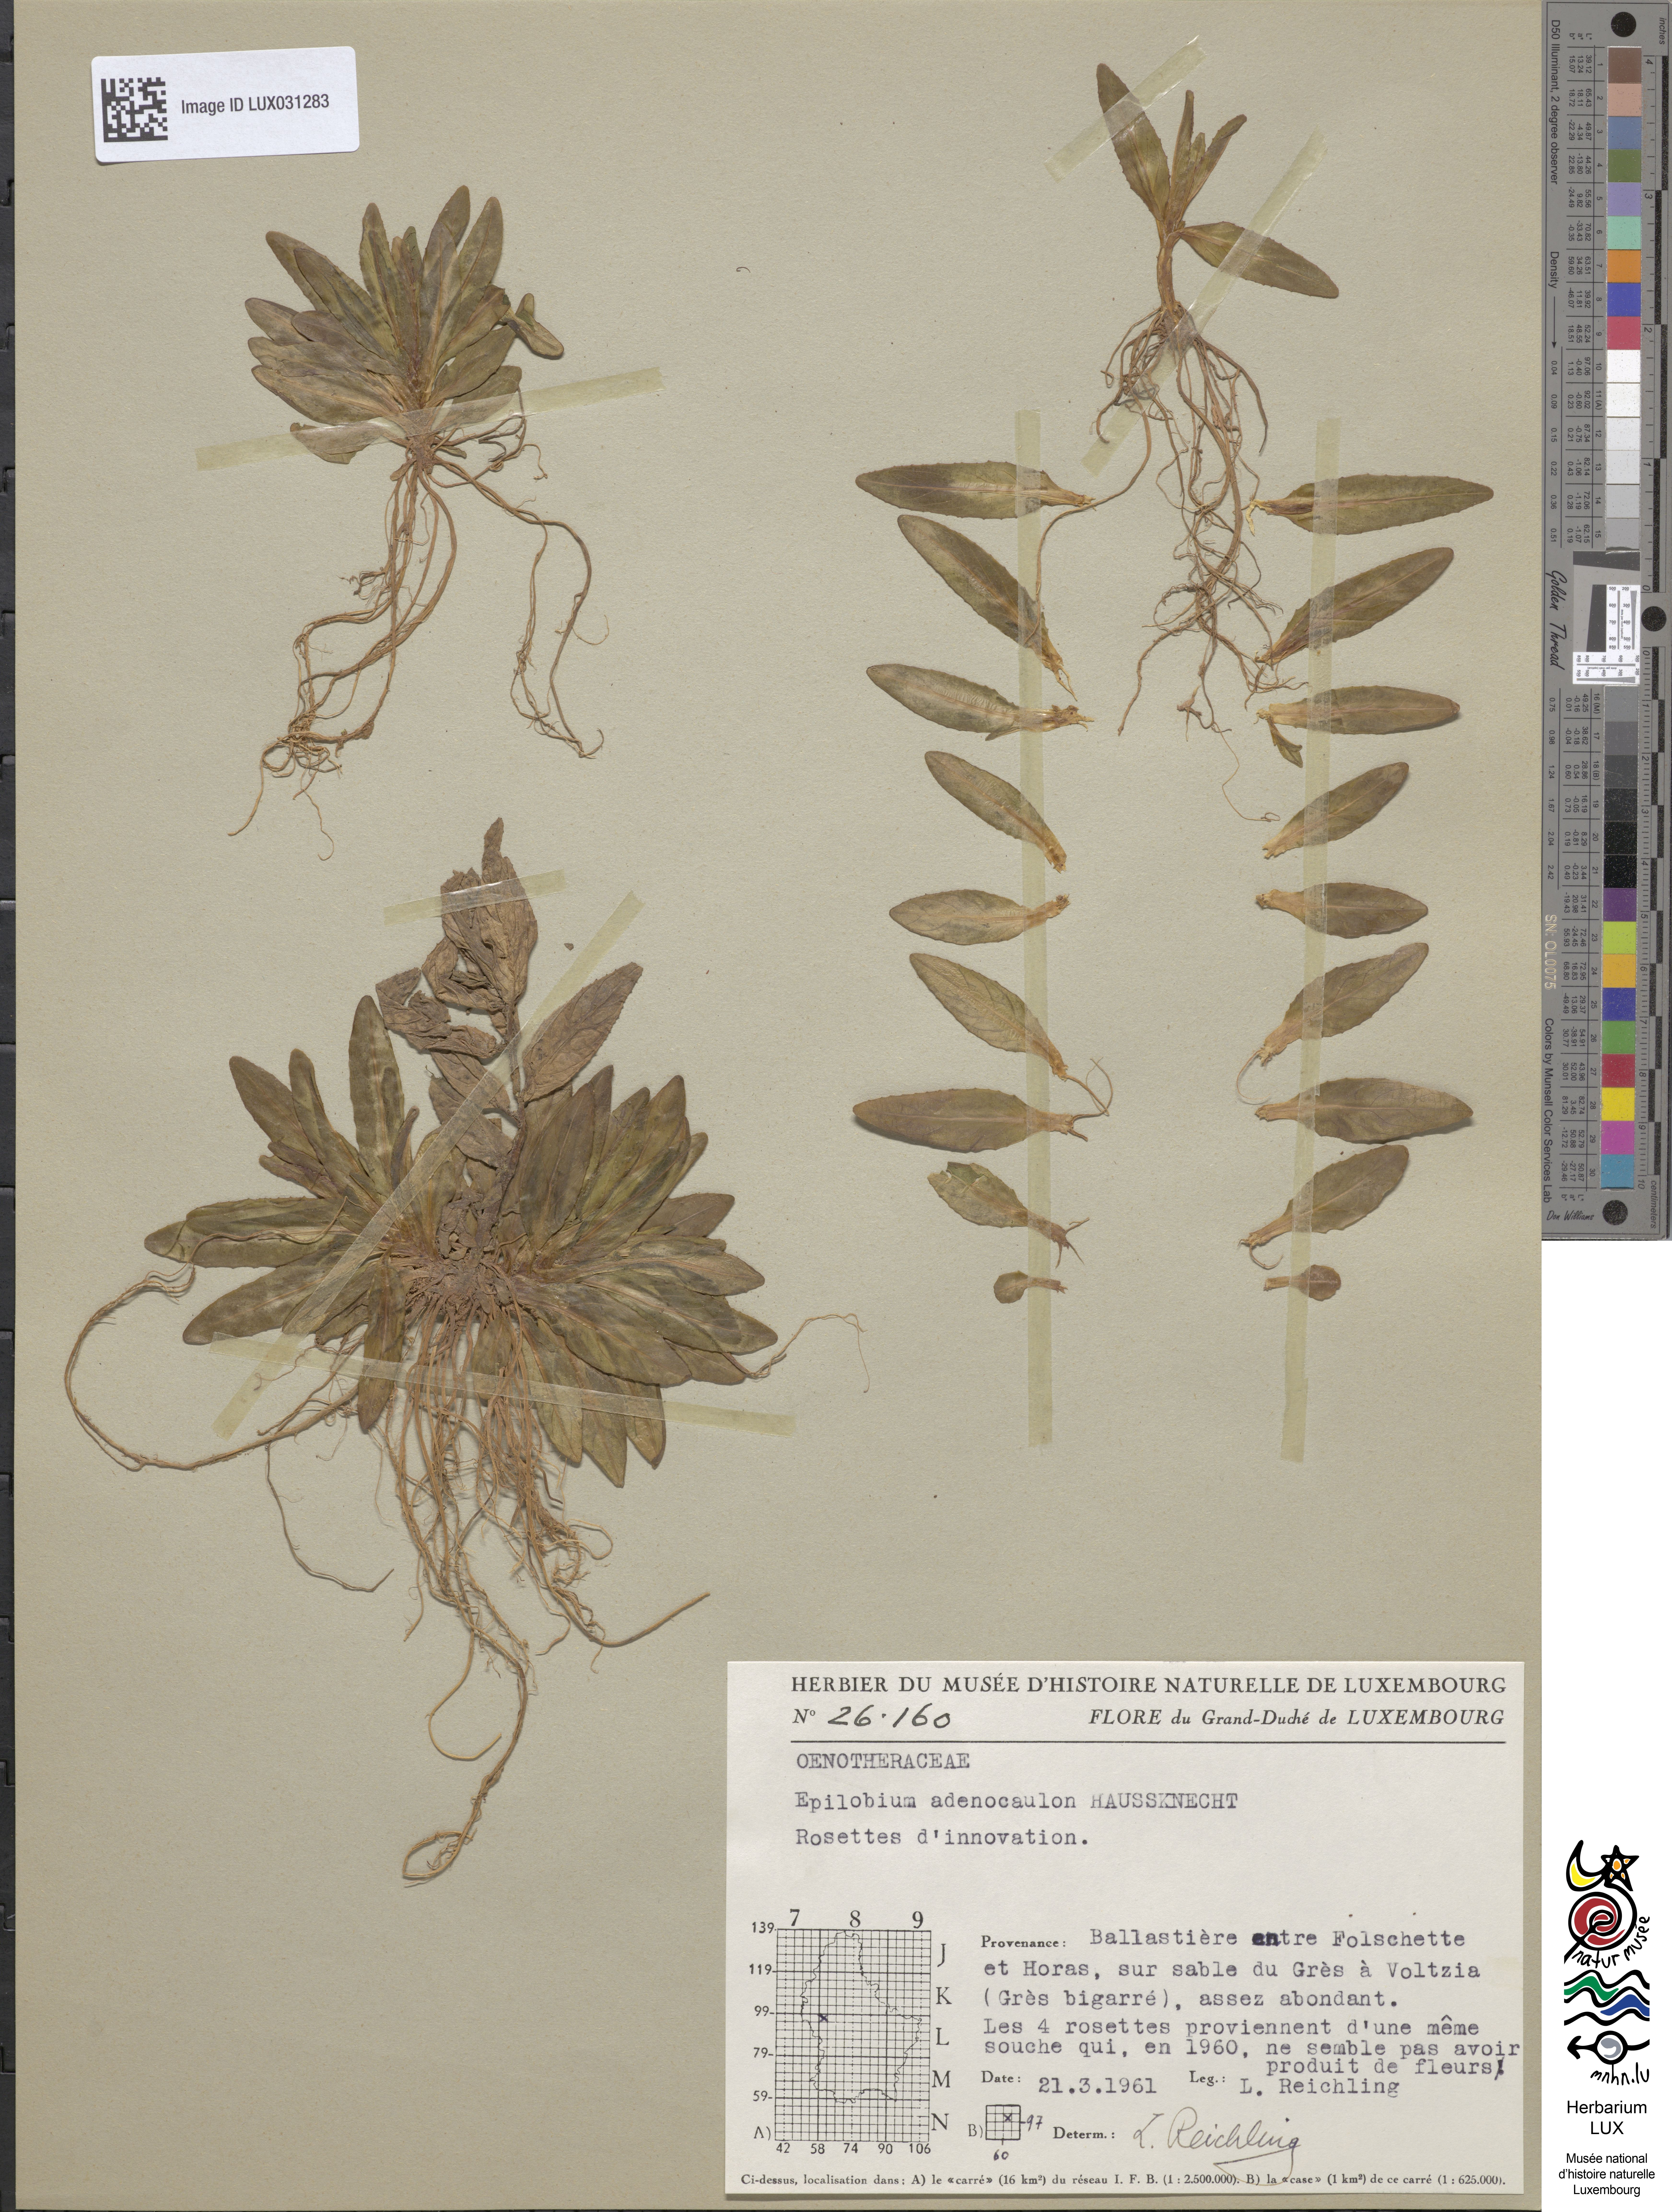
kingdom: Plantae
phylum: Tracheophyta
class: Magnoliopsida
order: Myrtales
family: Onagraceae
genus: Epilobium
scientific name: Epilobium ciliatum
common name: American willowherb
